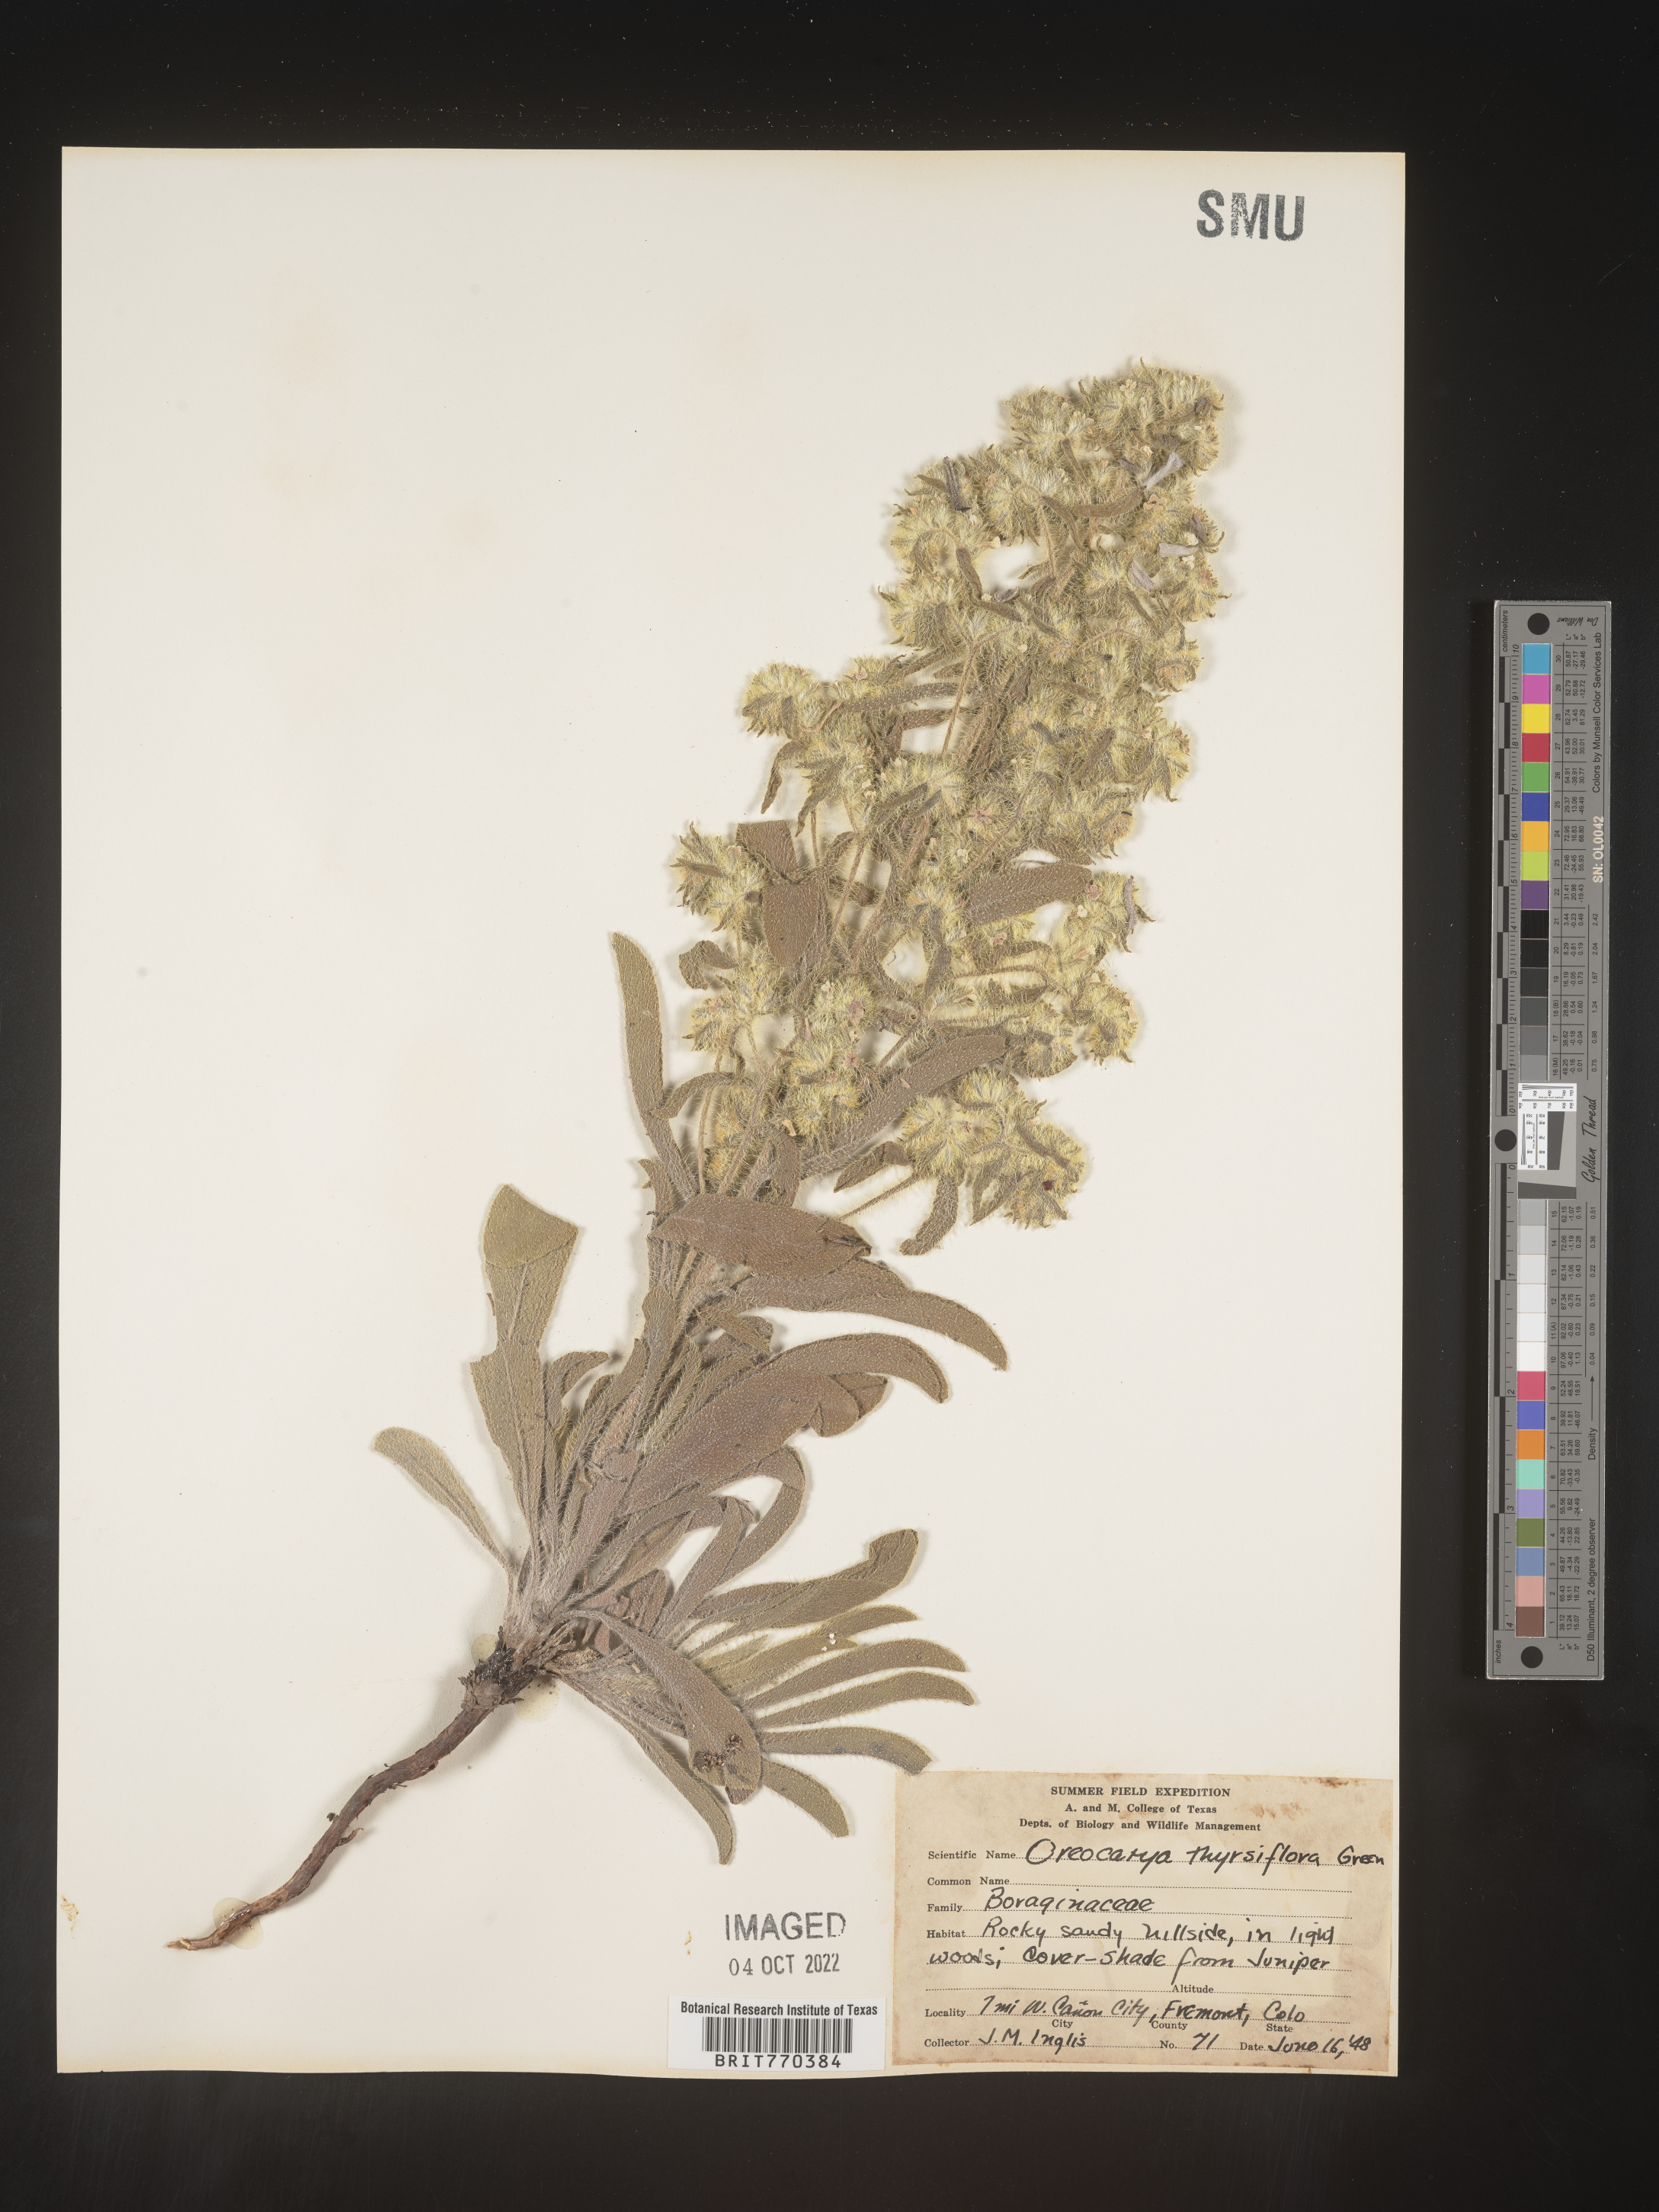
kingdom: Plantae
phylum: Tracheophyta
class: Magnoliopsida
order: Boraginales
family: Boraginaceae
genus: Oreocarya
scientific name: Oreocarya
